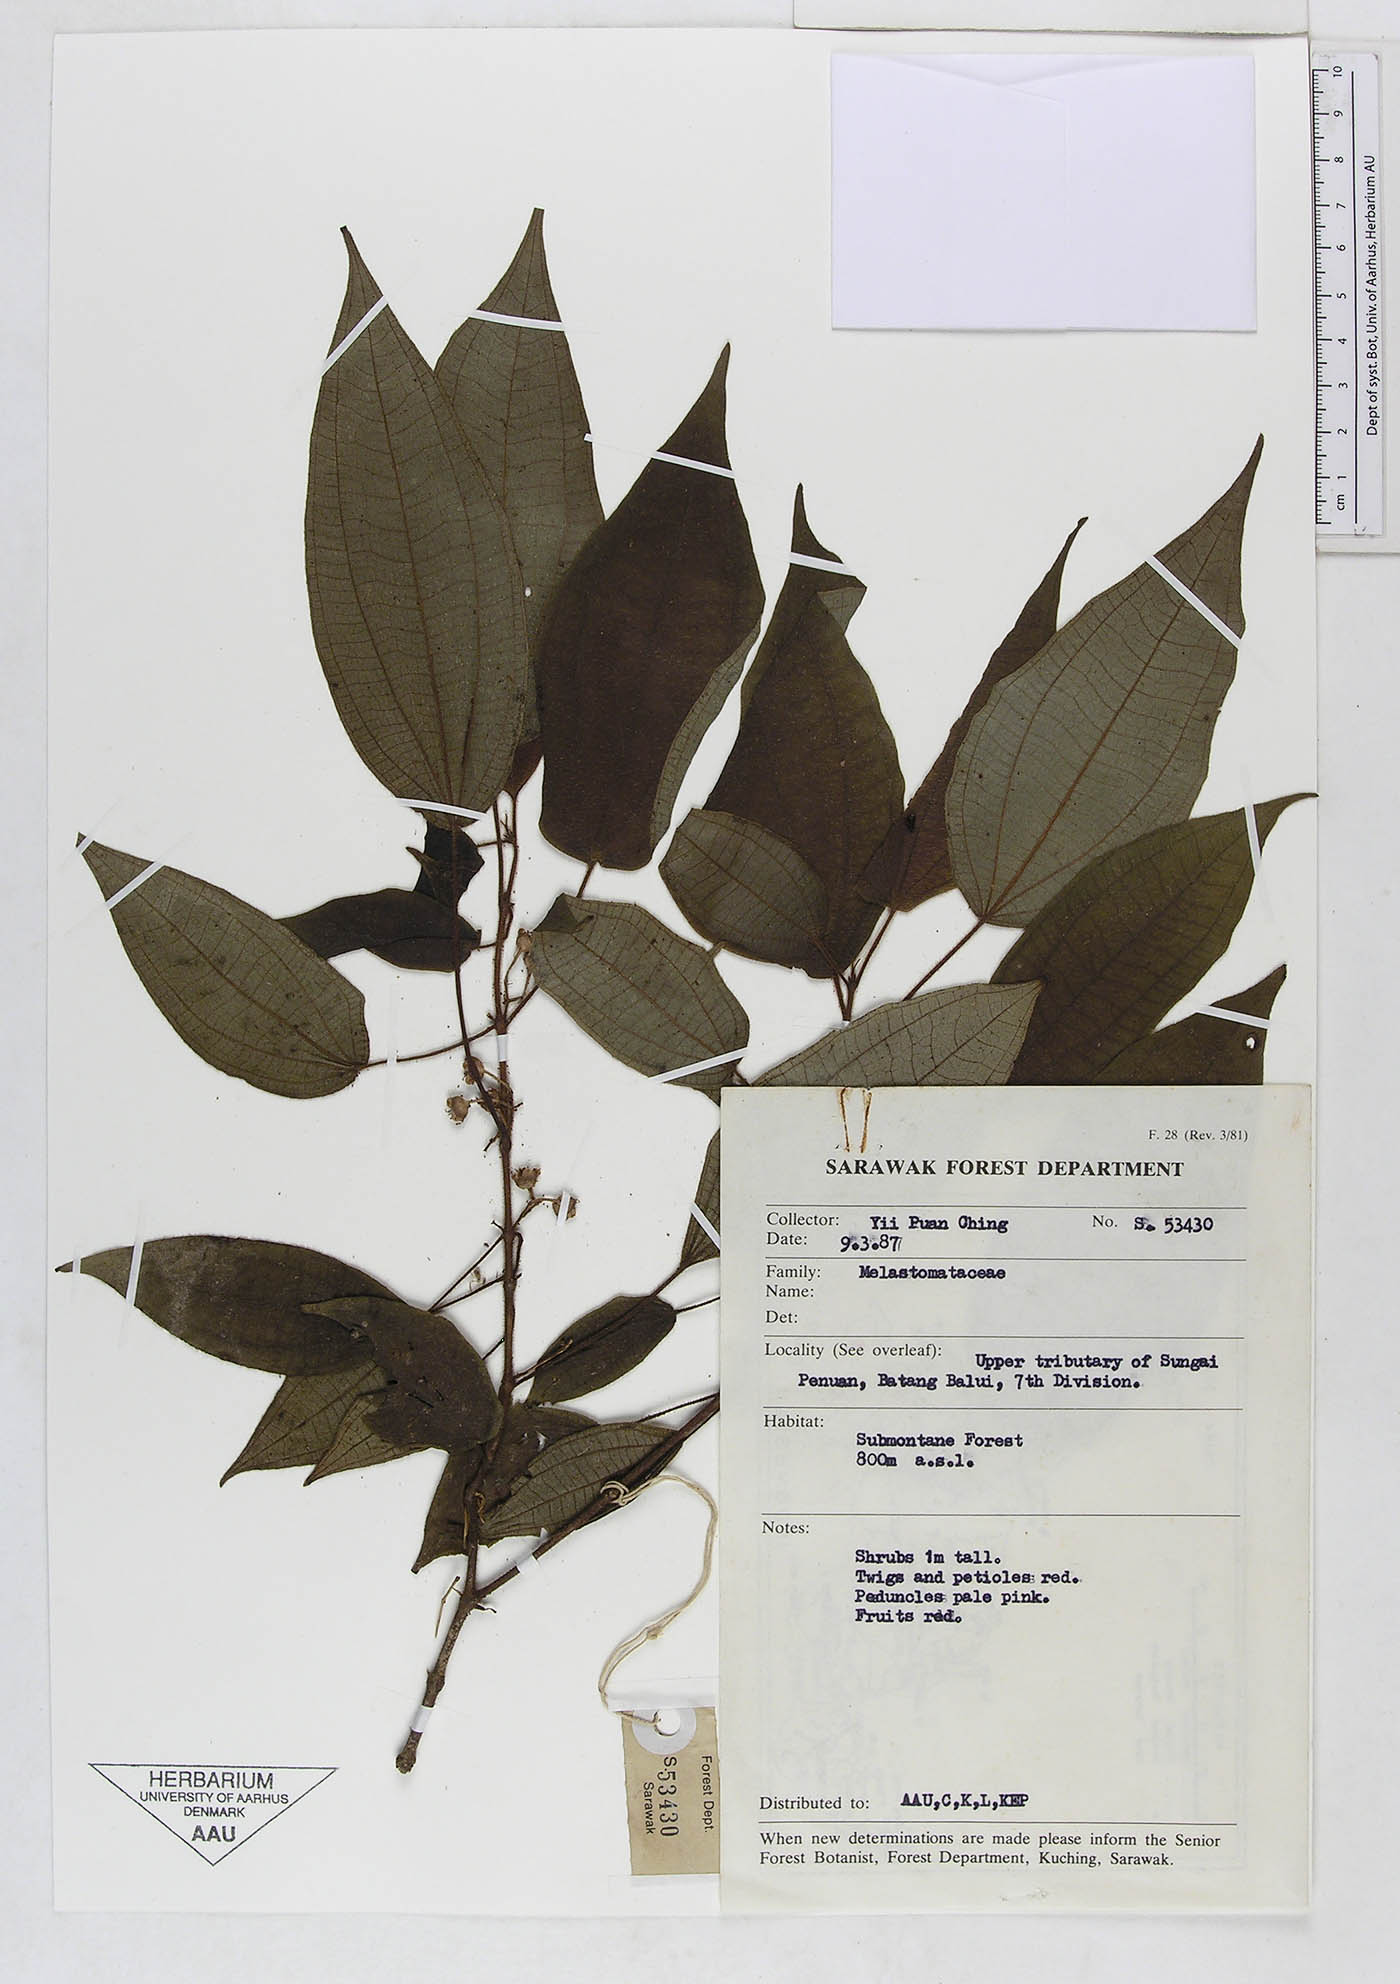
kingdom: Plantae
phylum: Tracheophyta
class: Magnoliopsida
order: Myrtales
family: Melastomataceae
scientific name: Melastomataceae
